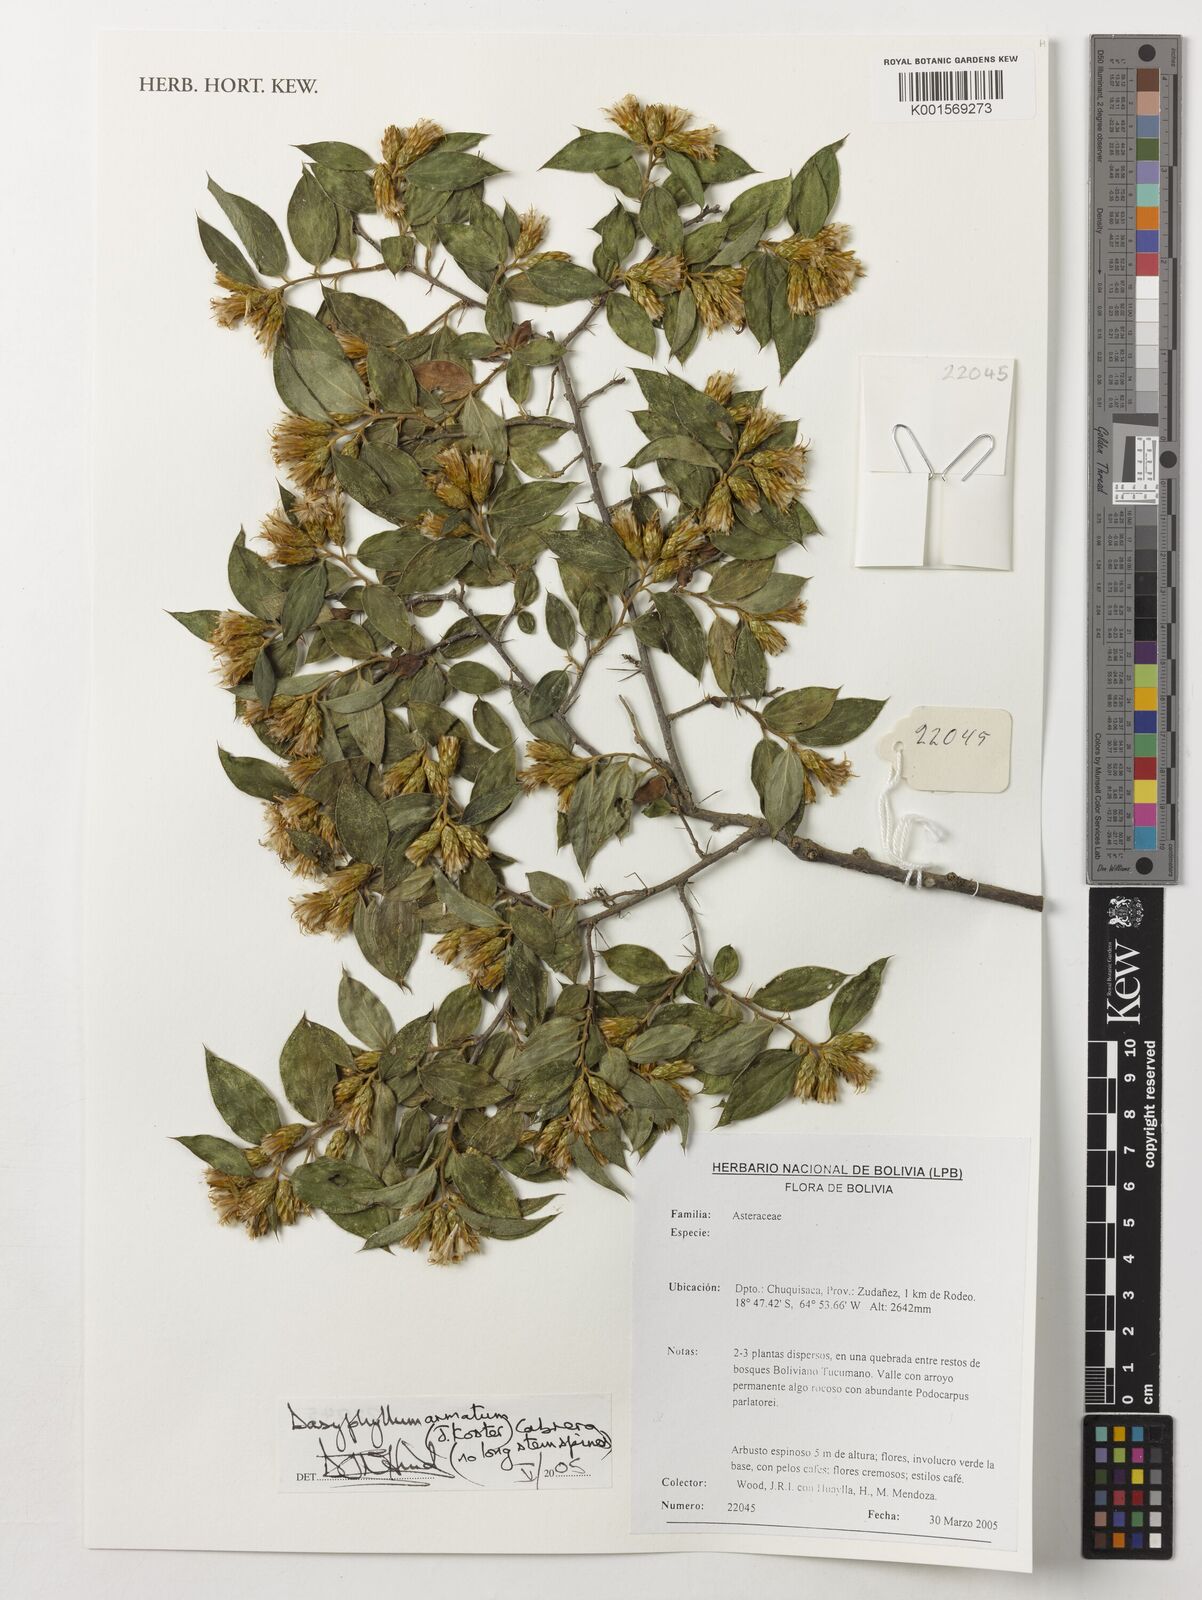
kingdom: Plantae
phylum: Tracheophyta
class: Magnoliopsida
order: Asterales
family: Asteraceae
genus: Dasyphyllum
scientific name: Dasyphyllum armatum
